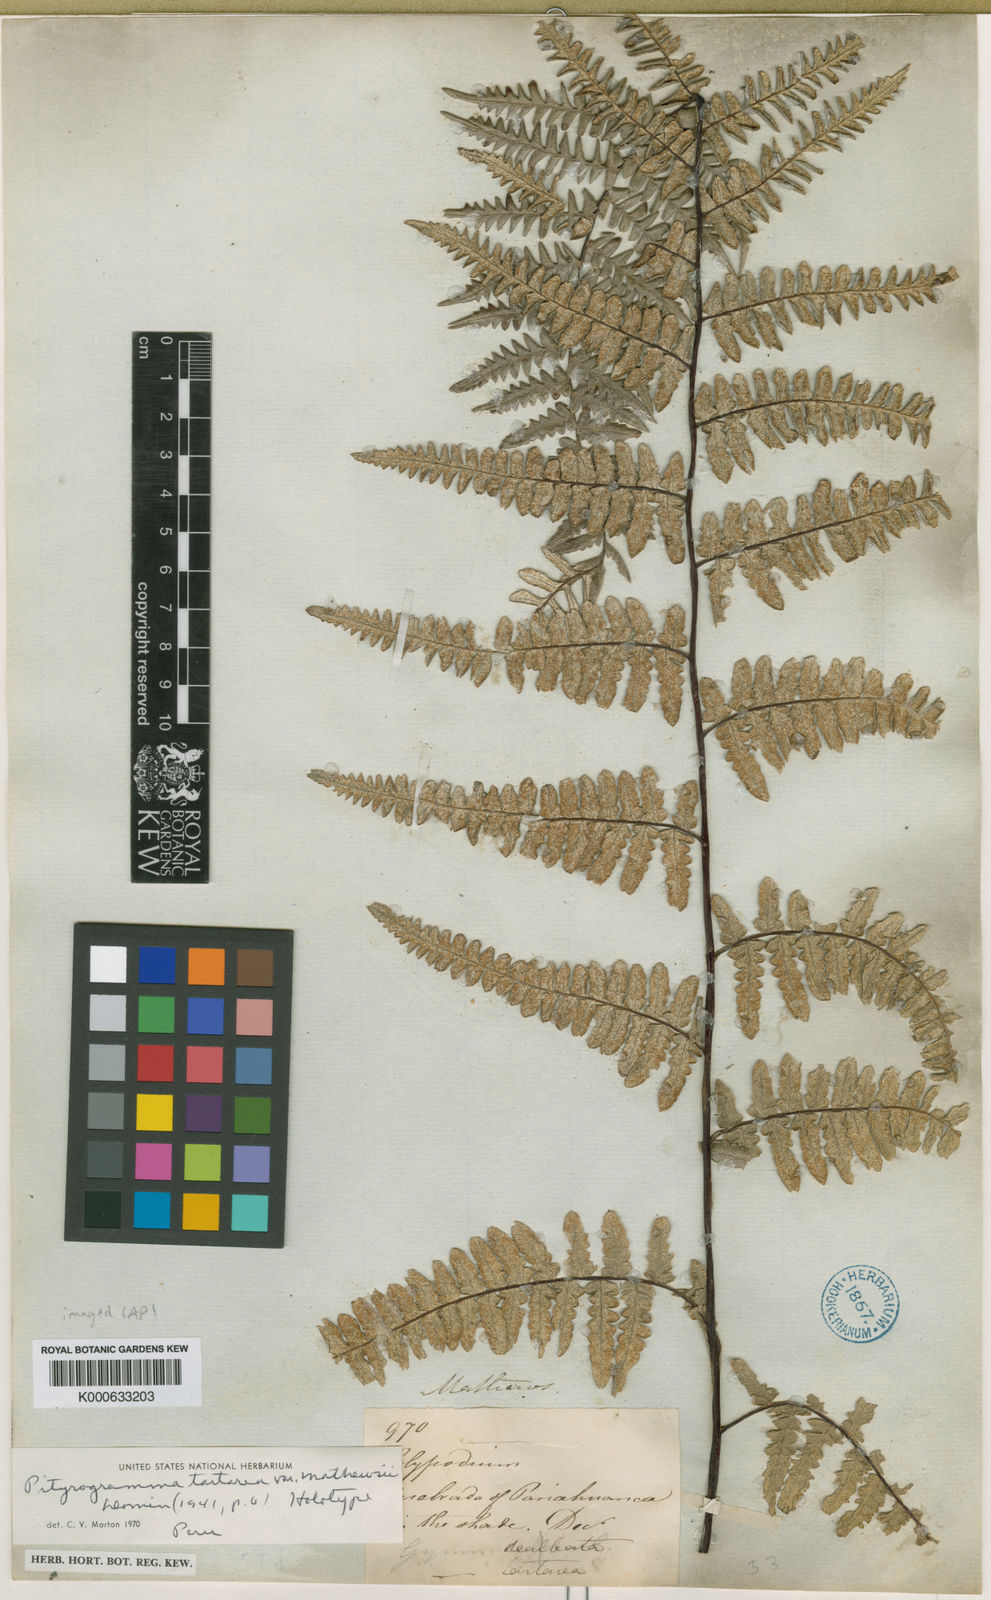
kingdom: Plantae
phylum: Tracheophyta
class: Polypodiopsida
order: Polypodiales
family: Pteridaceae
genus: Pityrogramma
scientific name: Pityrogramma ebenea
